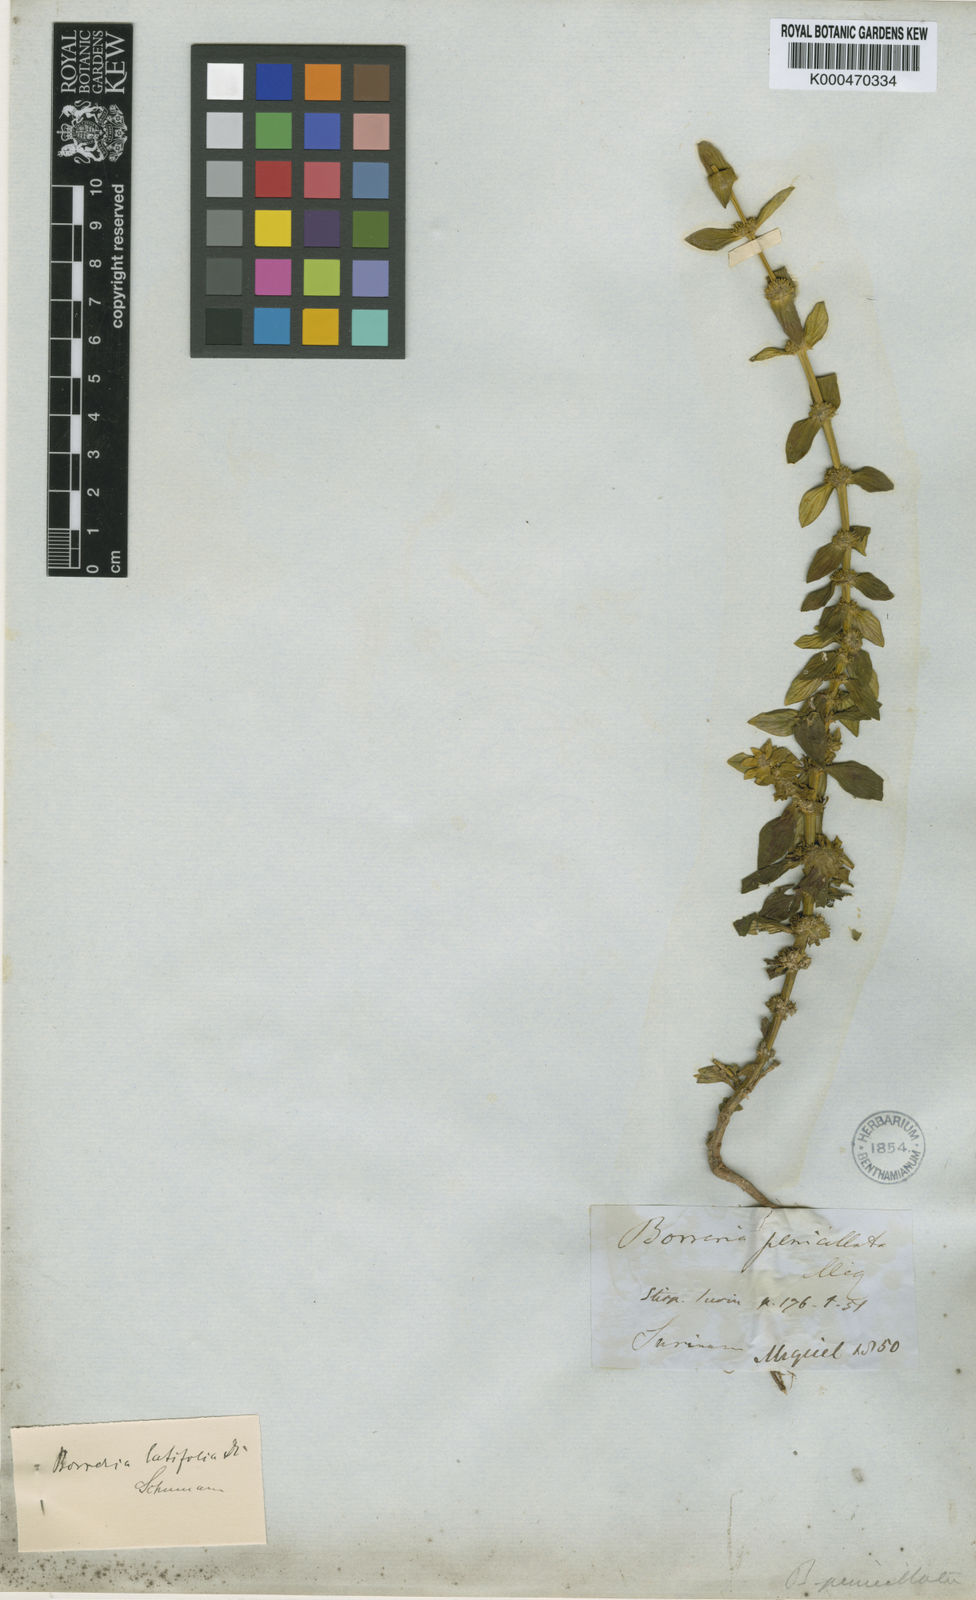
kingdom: Plantae
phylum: Tracheophyta
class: Magnoliopsida
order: Gentianales
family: Rubiaceae
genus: Spermacoce
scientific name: Spermacoce alata
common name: Winged false buttonweed
